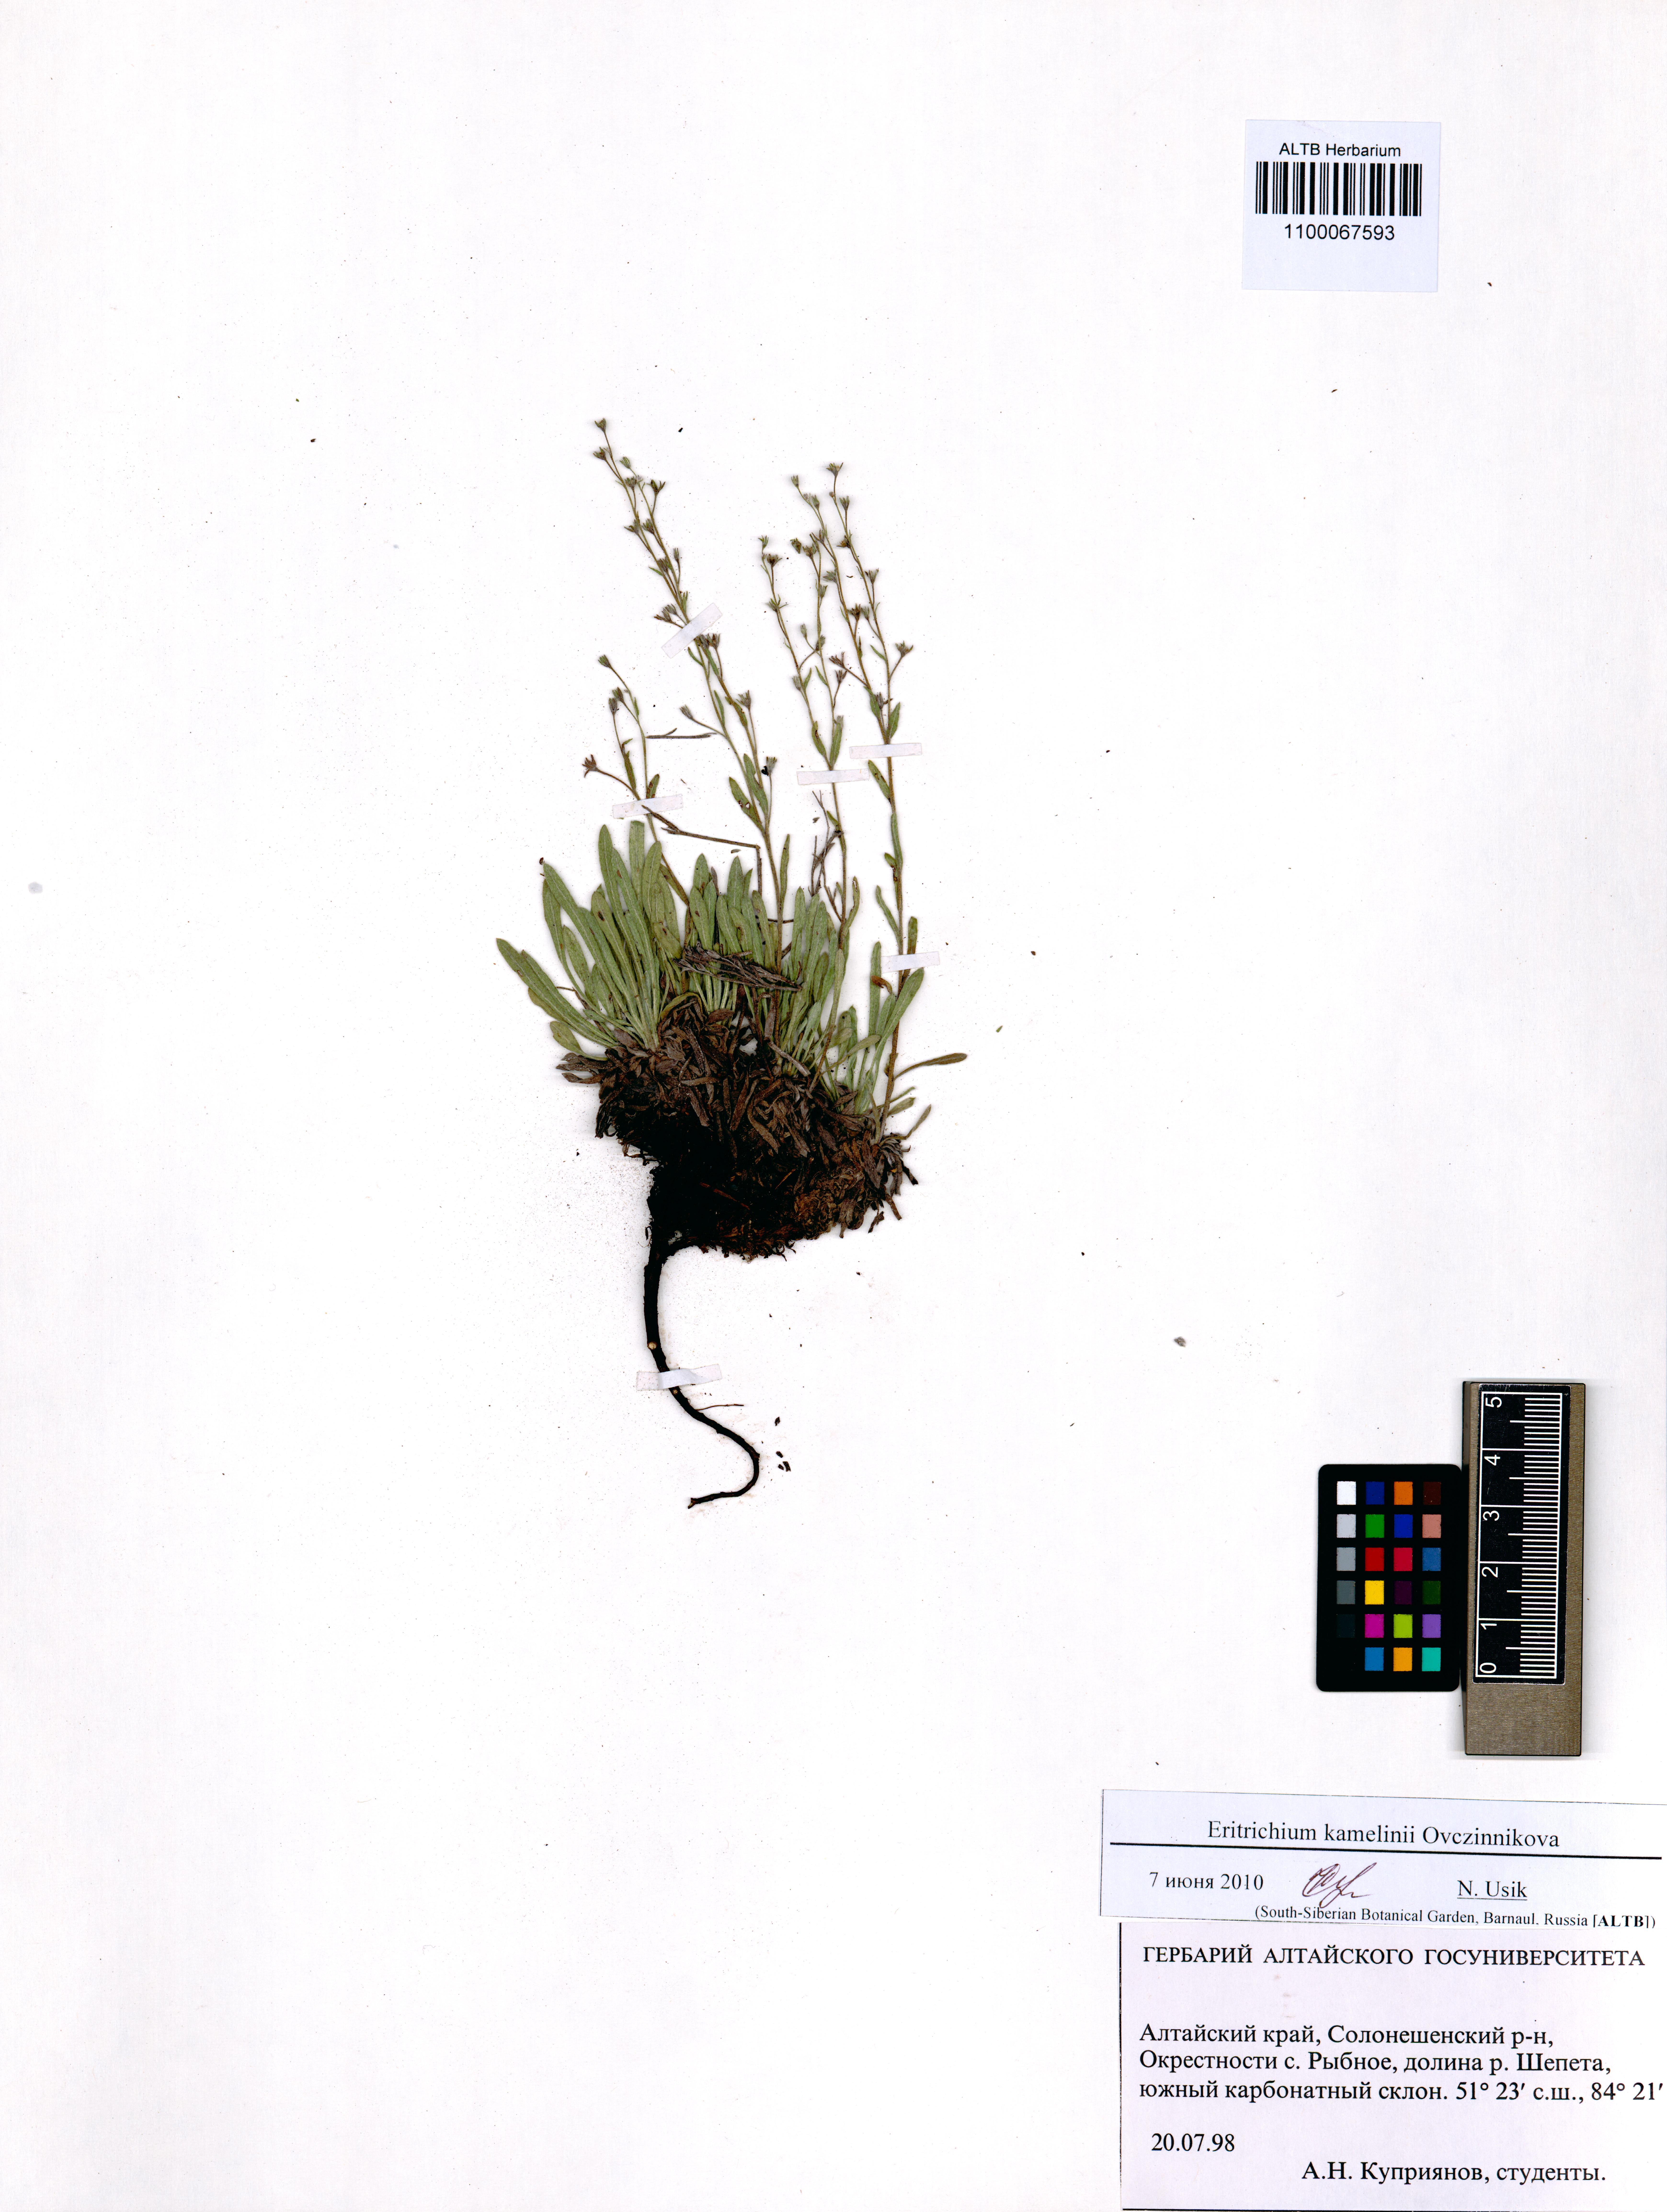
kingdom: Plantae
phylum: Tracheophyta
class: Magnoliopsida
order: Boraginales
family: Boraginaceae
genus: Eritrichium
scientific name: Eritrichium kamelinii
